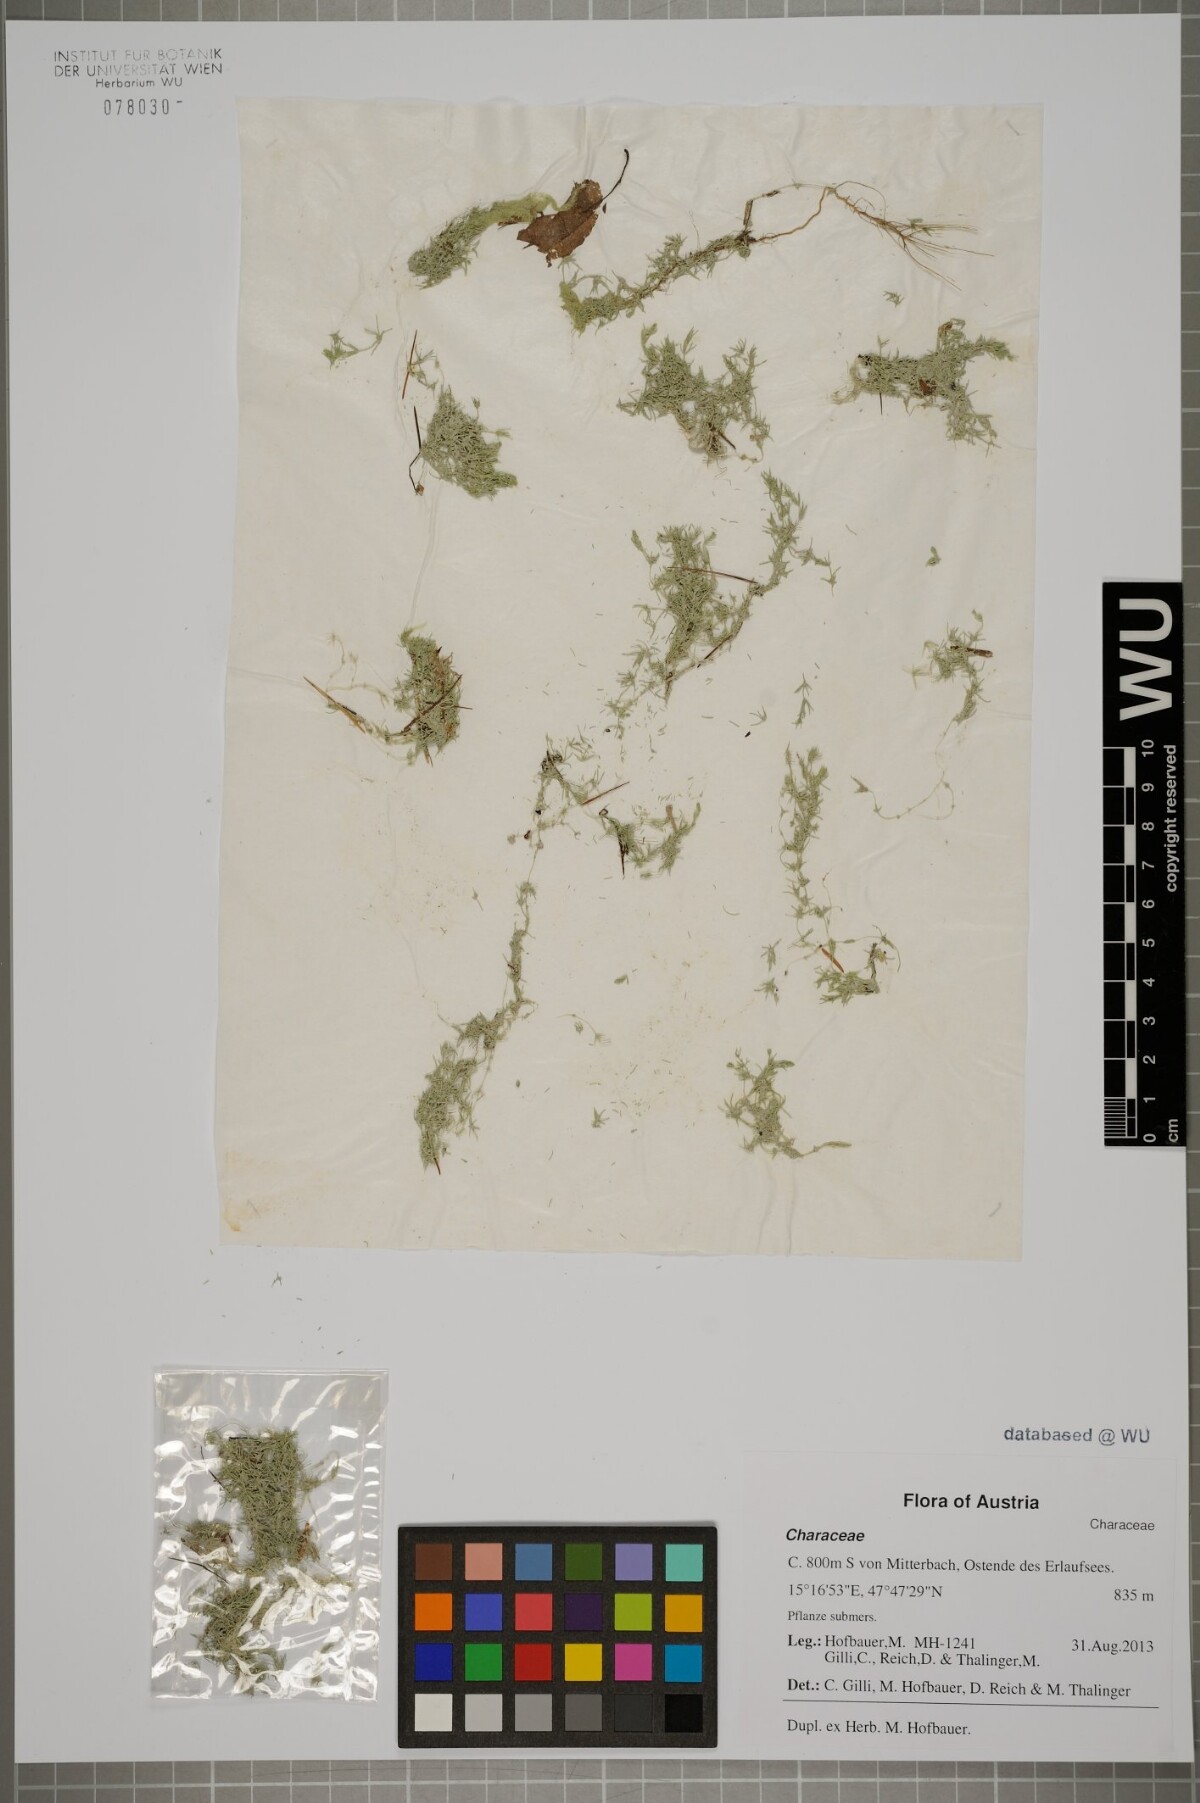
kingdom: Plantae
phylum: Charophyta
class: Charophyceae
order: Charales
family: Characeae
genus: Chara
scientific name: Chara globularis
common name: Fragile stonewort
